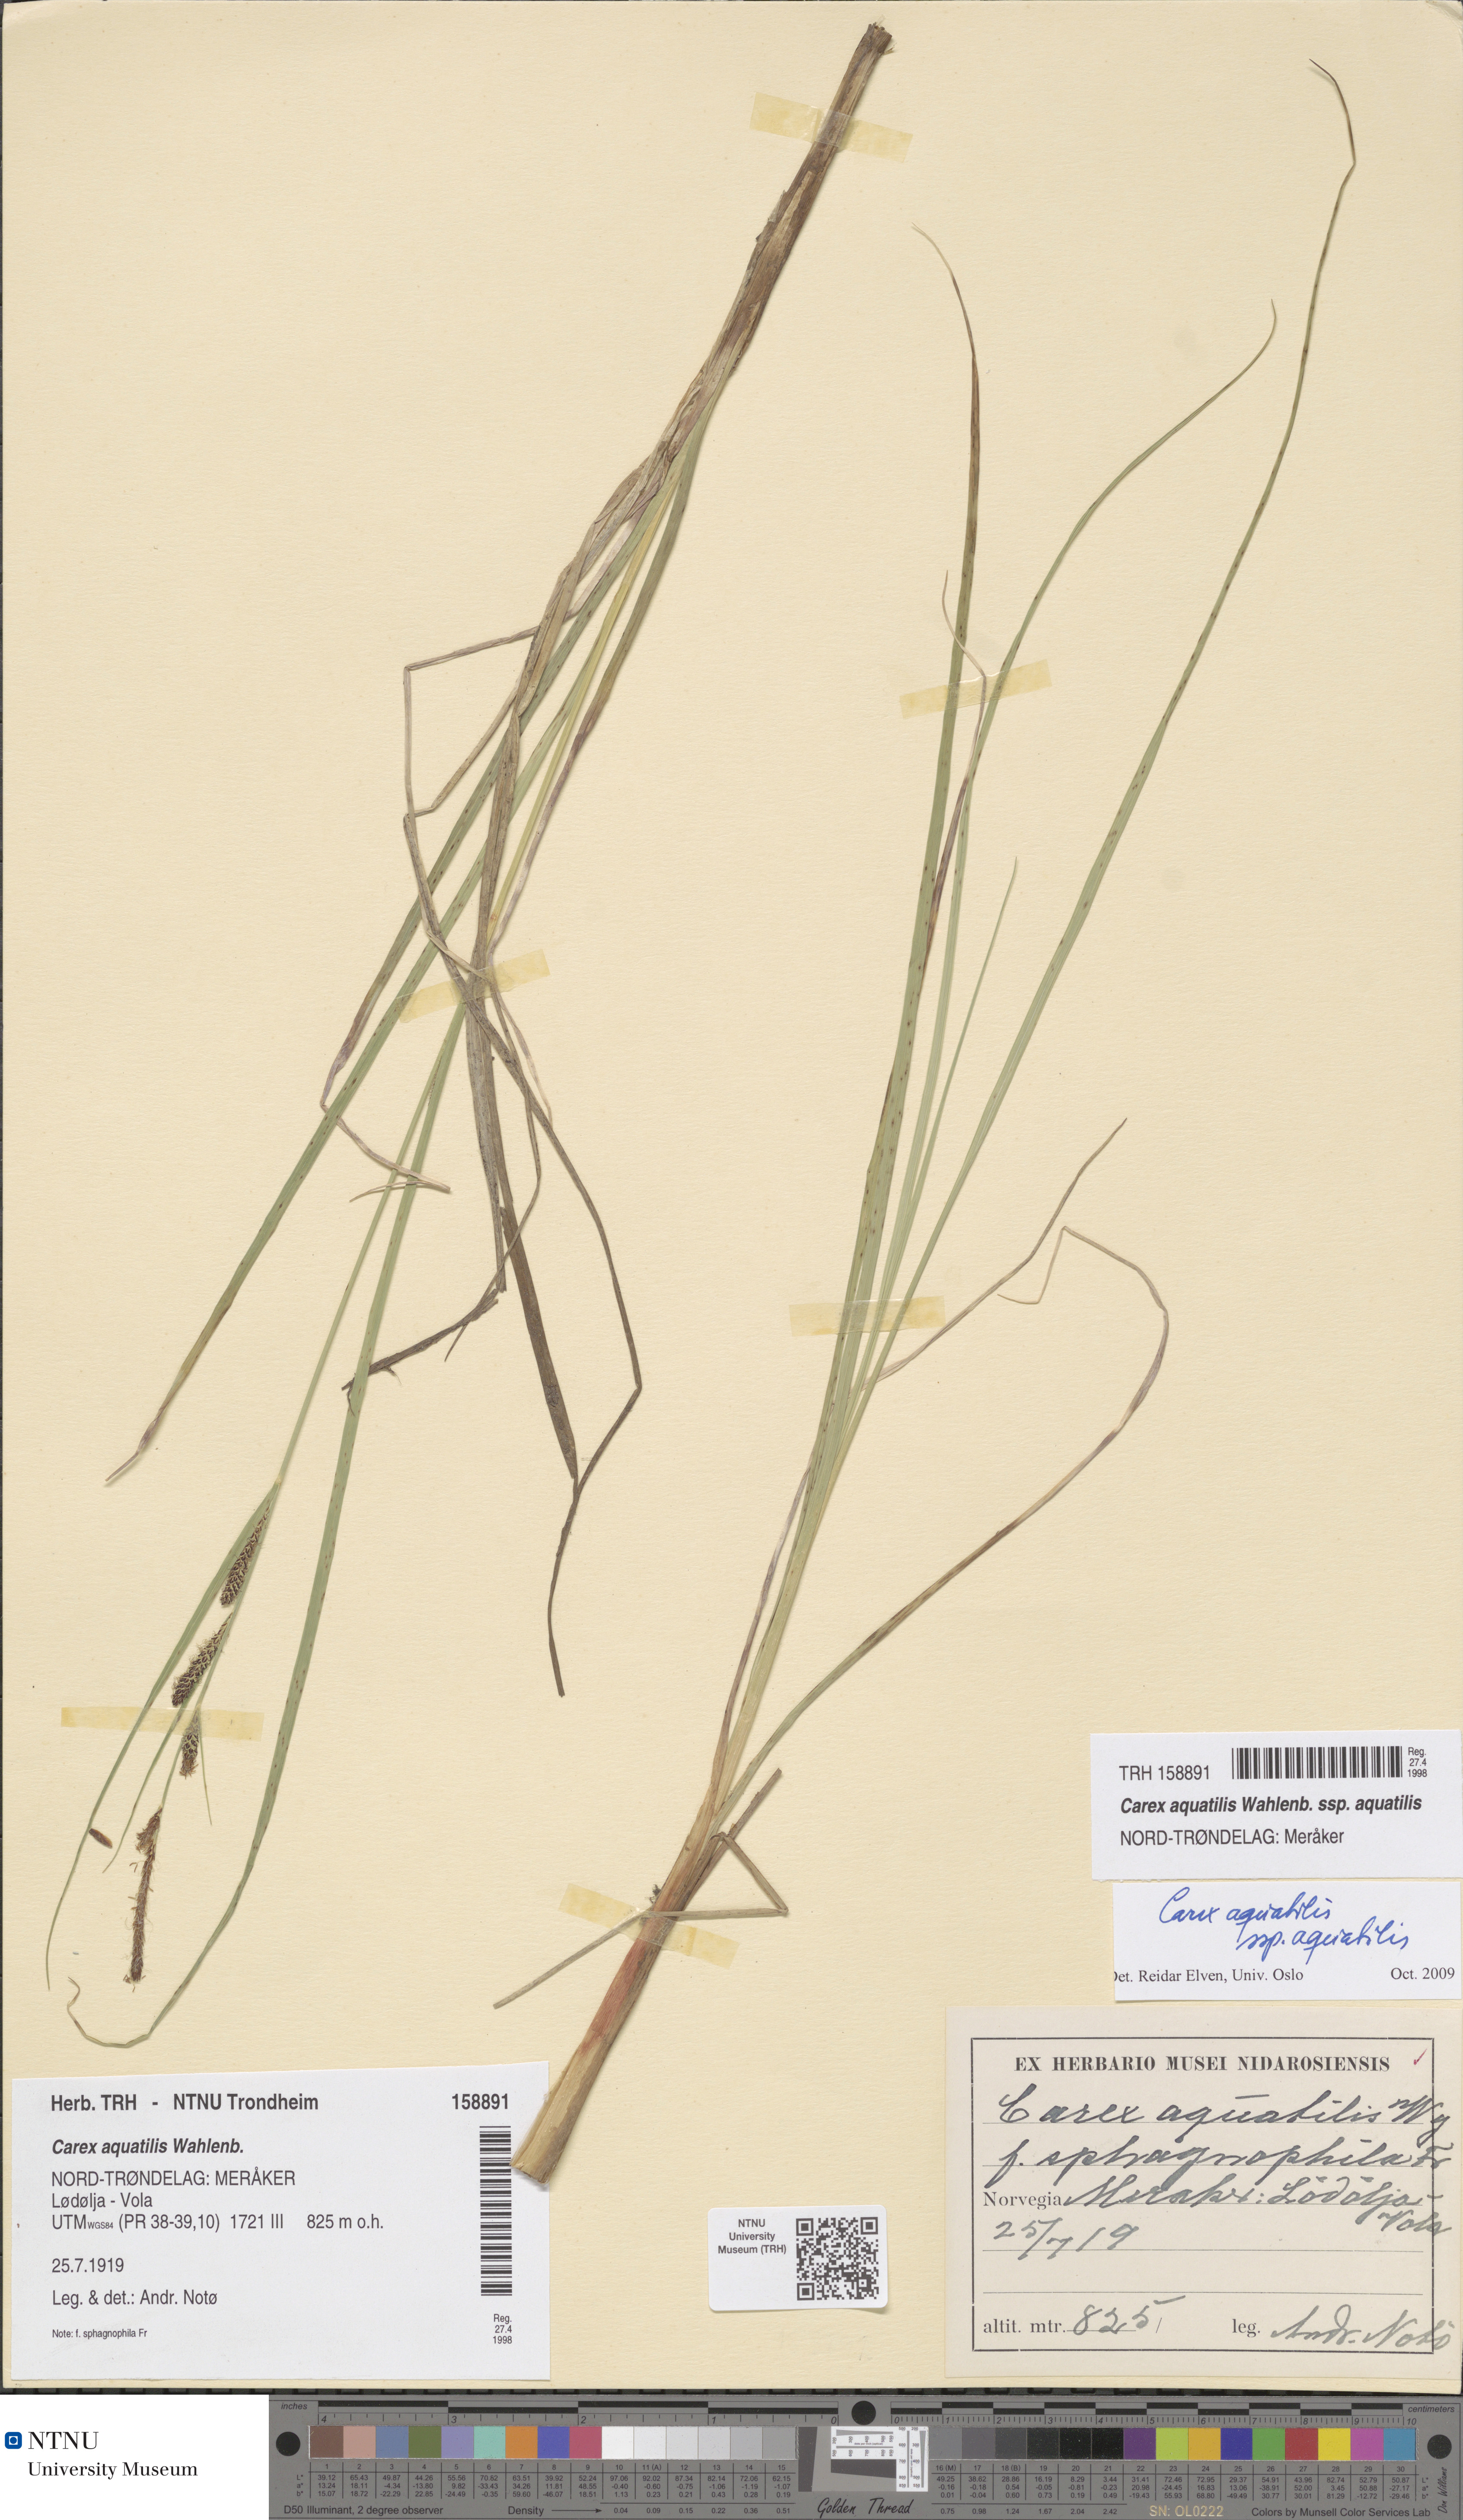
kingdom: Plantae
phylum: Tracheophyta
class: Liliopsida
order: Poales
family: Cyperaceae
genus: Carex
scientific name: Carex aquatilis
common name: Water sedge
